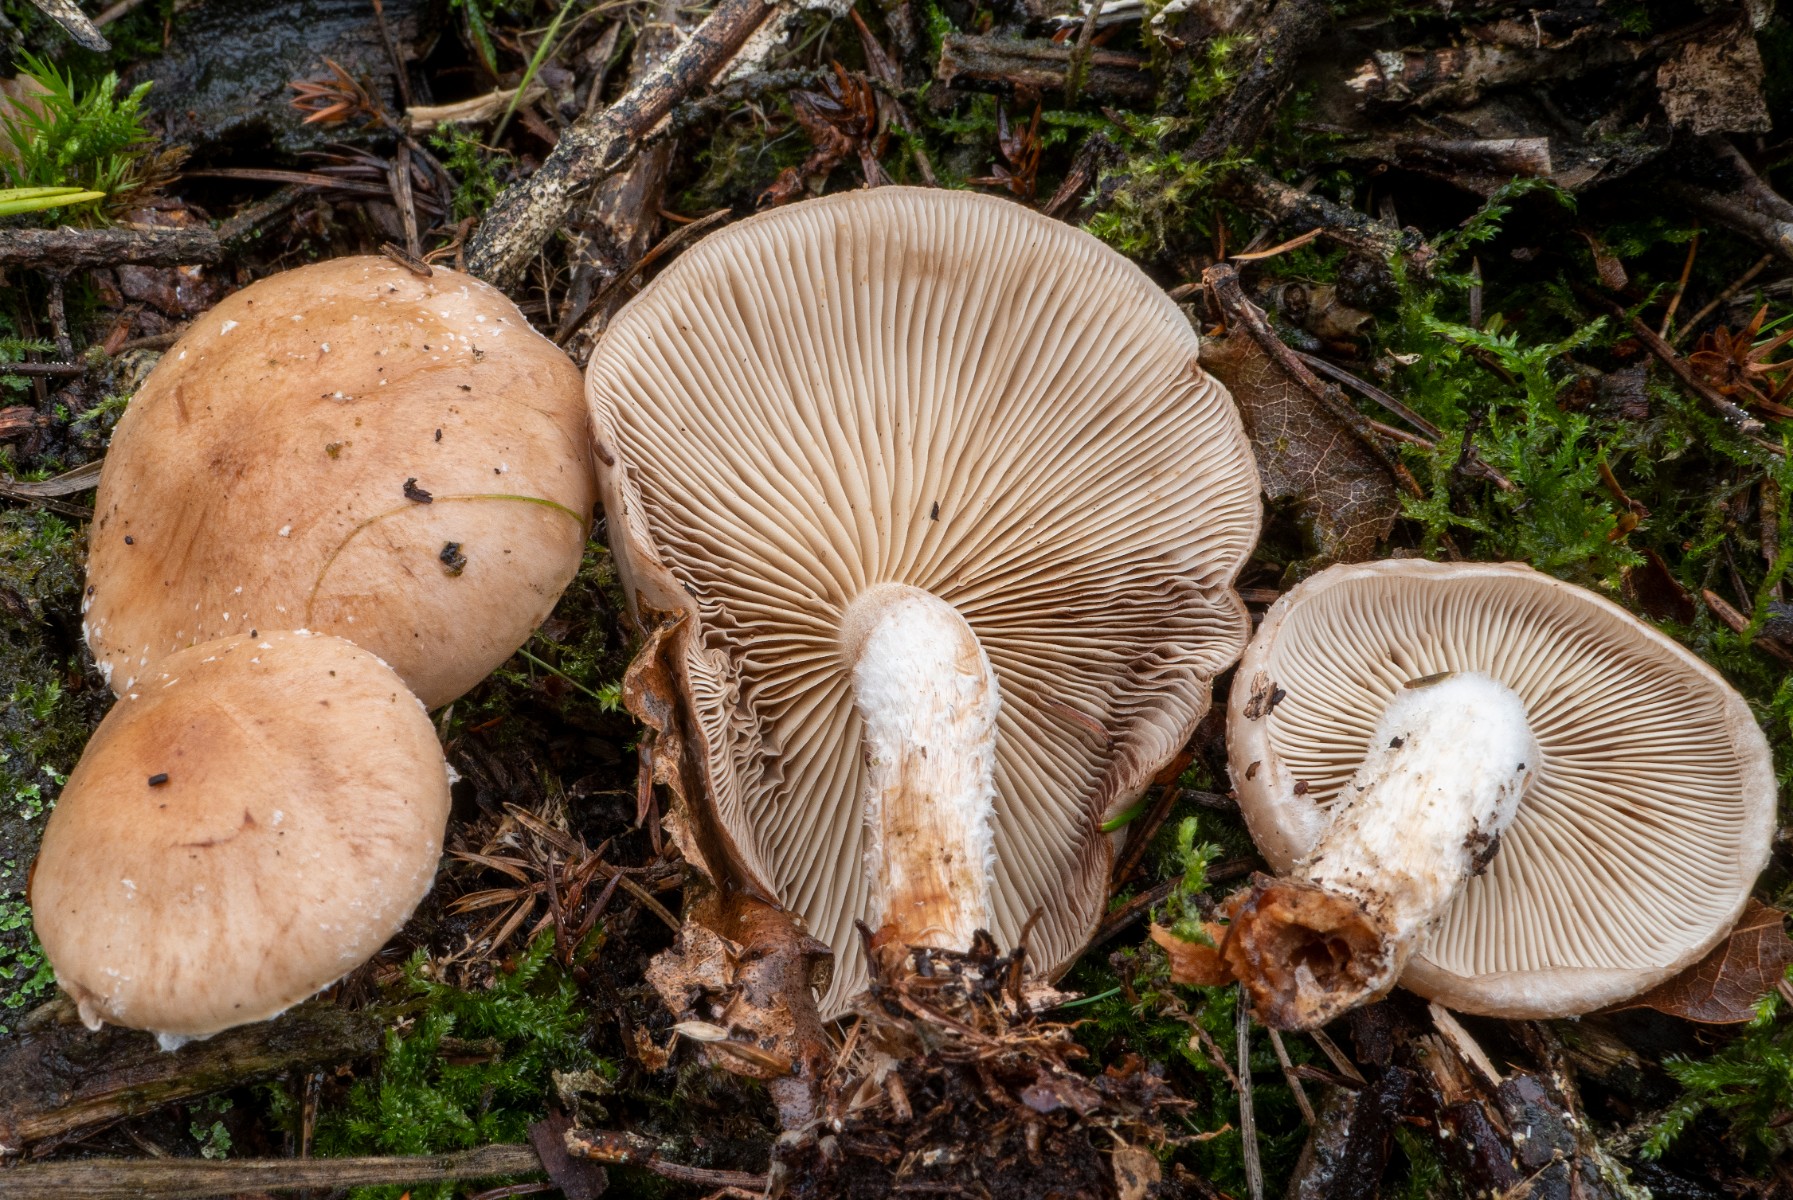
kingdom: Fungi
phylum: Basidiomycota
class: Agaricomycetes
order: Agaricales
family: Strophariaceae
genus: Pholiota
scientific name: Pholiota lenta
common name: løv-skælhat
